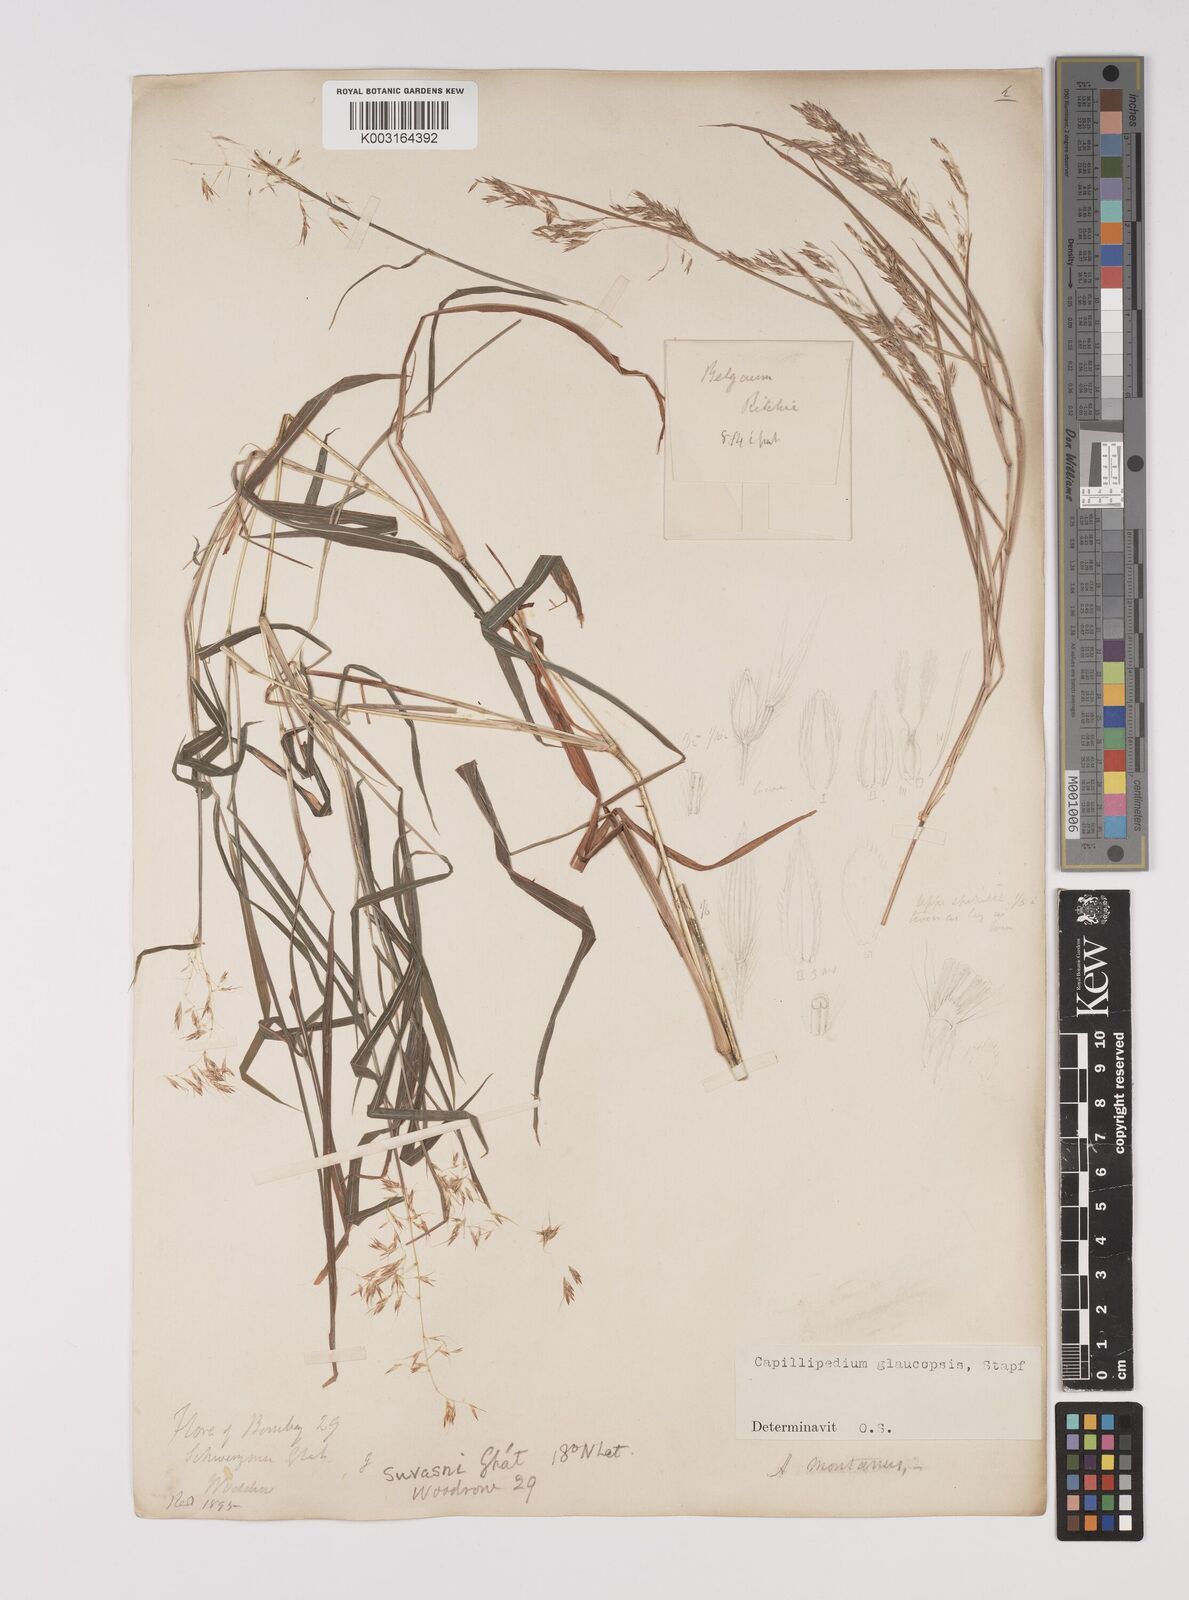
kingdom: Plantae
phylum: Tracheophyta
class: Liliopsida
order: Poales
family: Poaceae
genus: Capillipedium
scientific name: Capillipedium assimile
